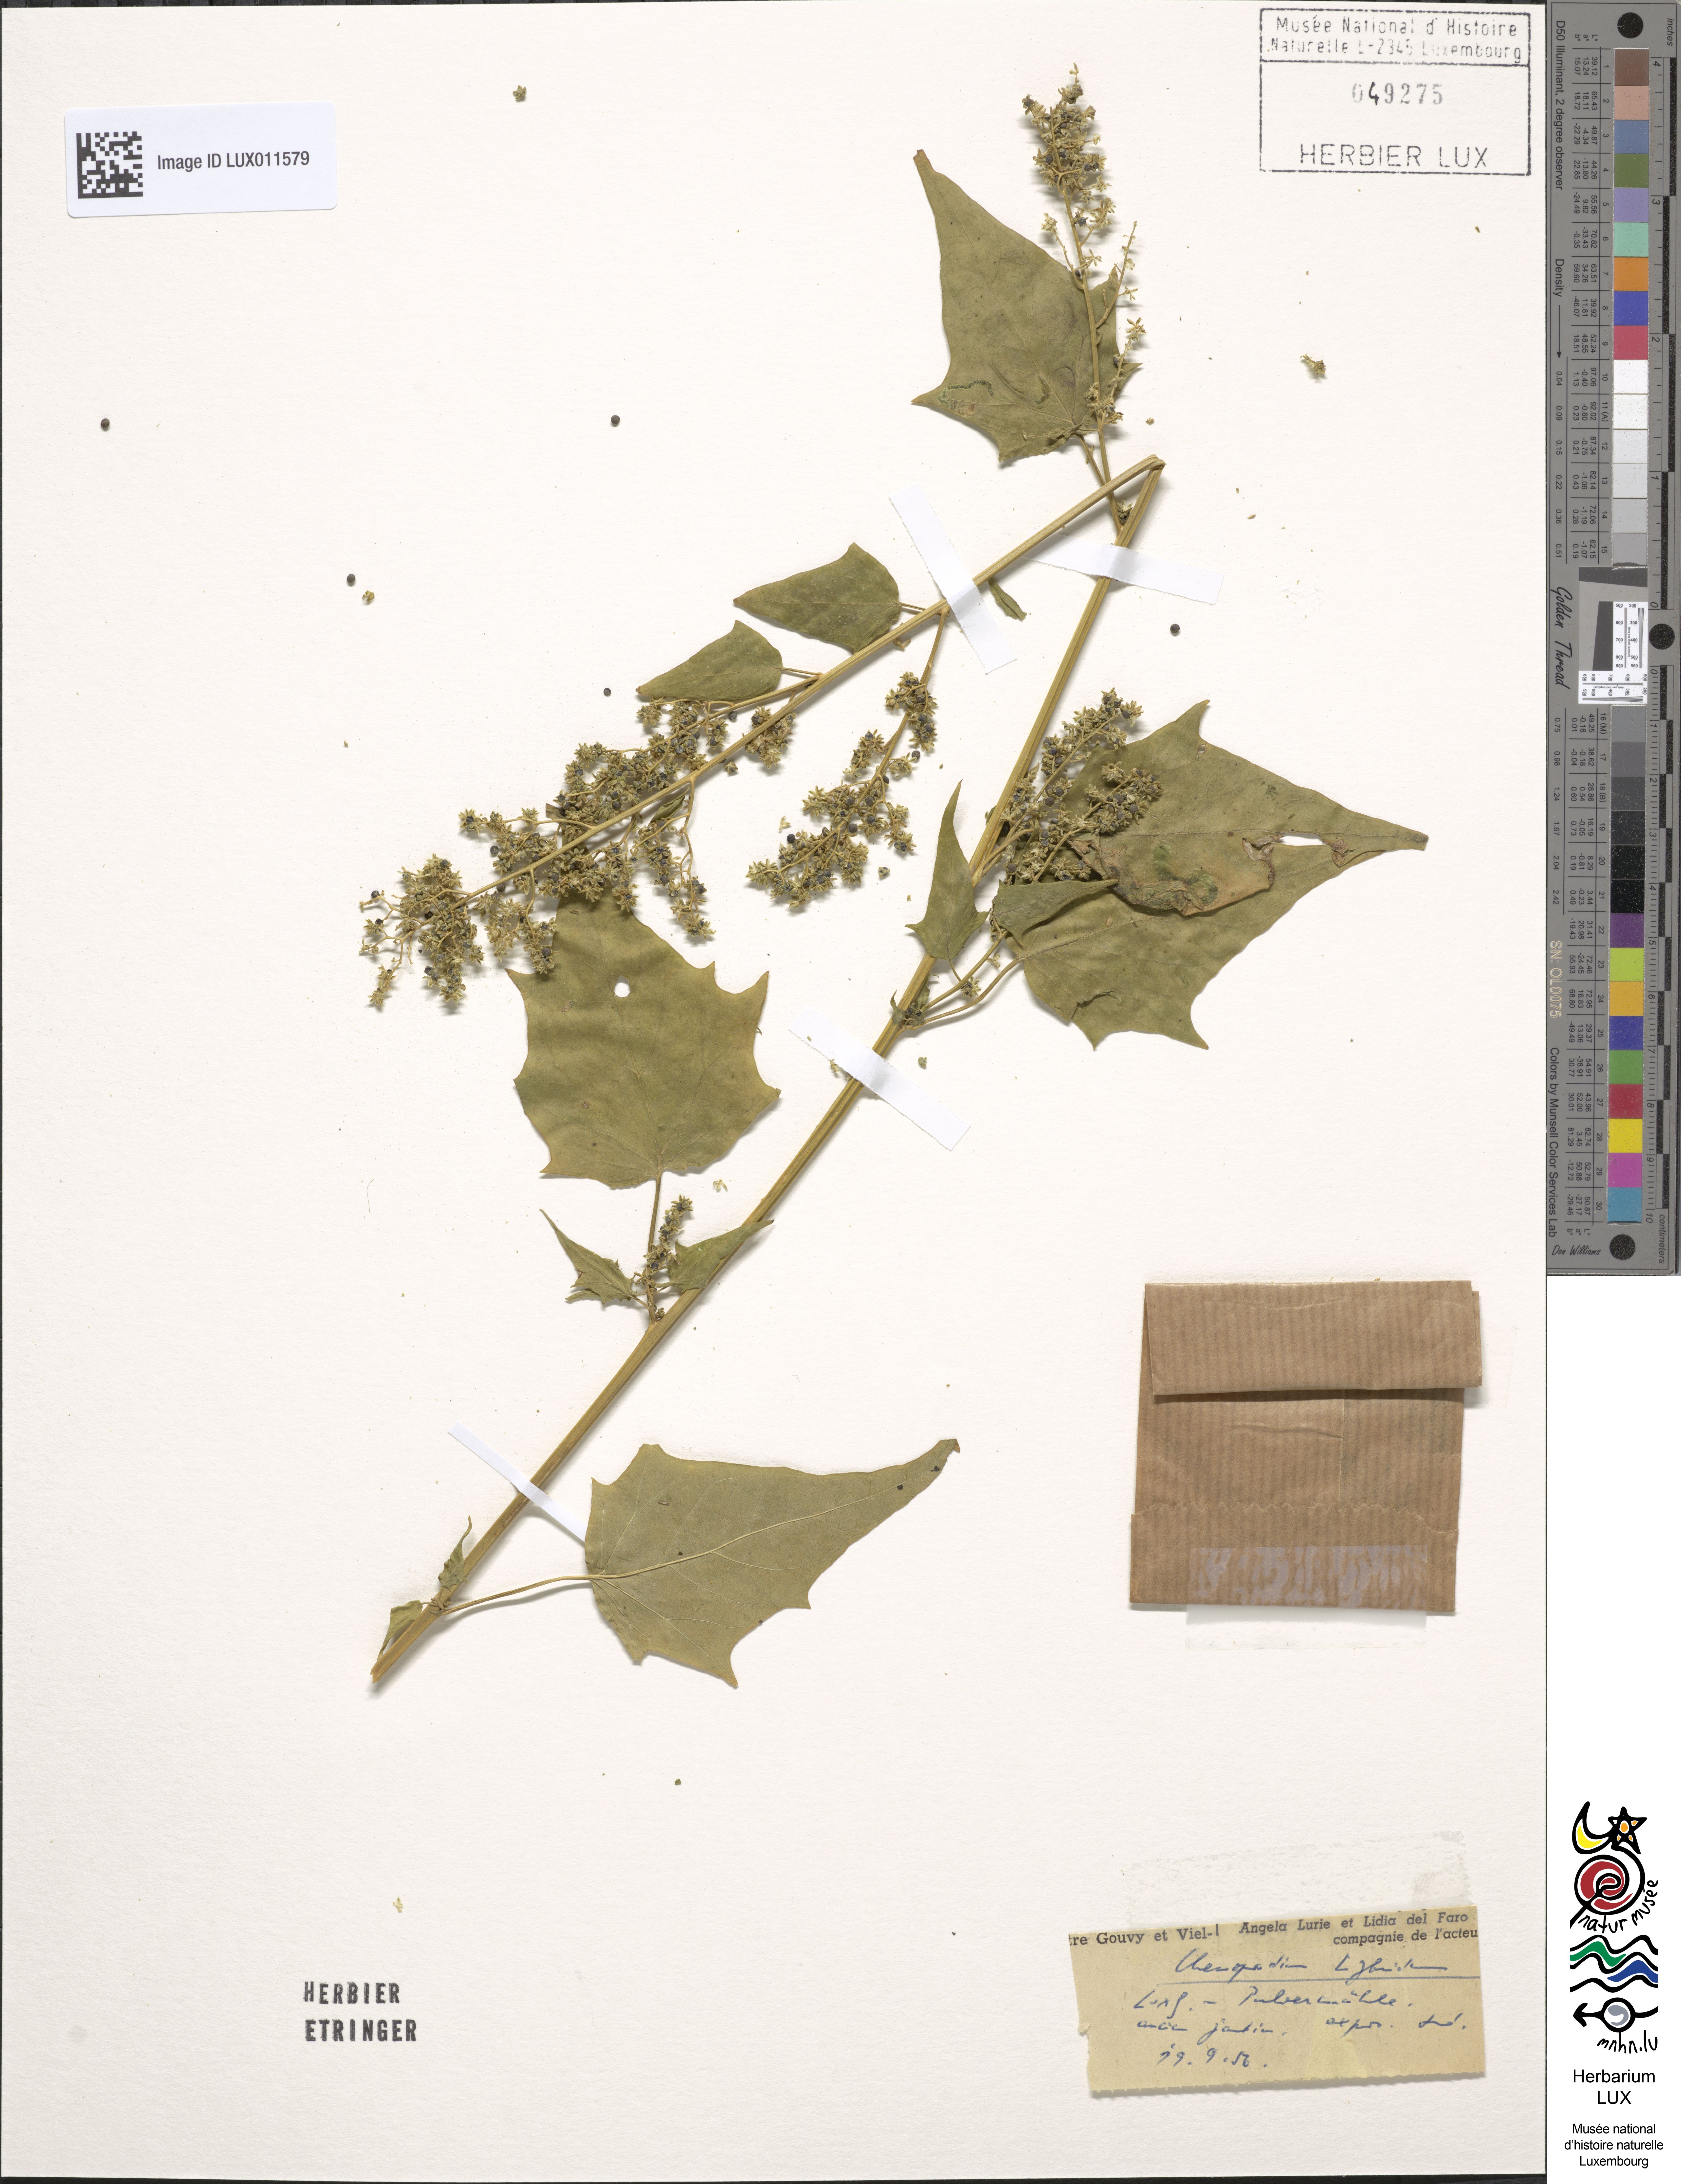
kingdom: Plantae
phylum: Tracheophyta
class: Magnoliopsida
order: Caryophyllales
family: Amaranthaceae
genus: Chenopodiastrum
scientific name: Chenopodiastrum hybridum
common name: Mapleleaf goosefoot
